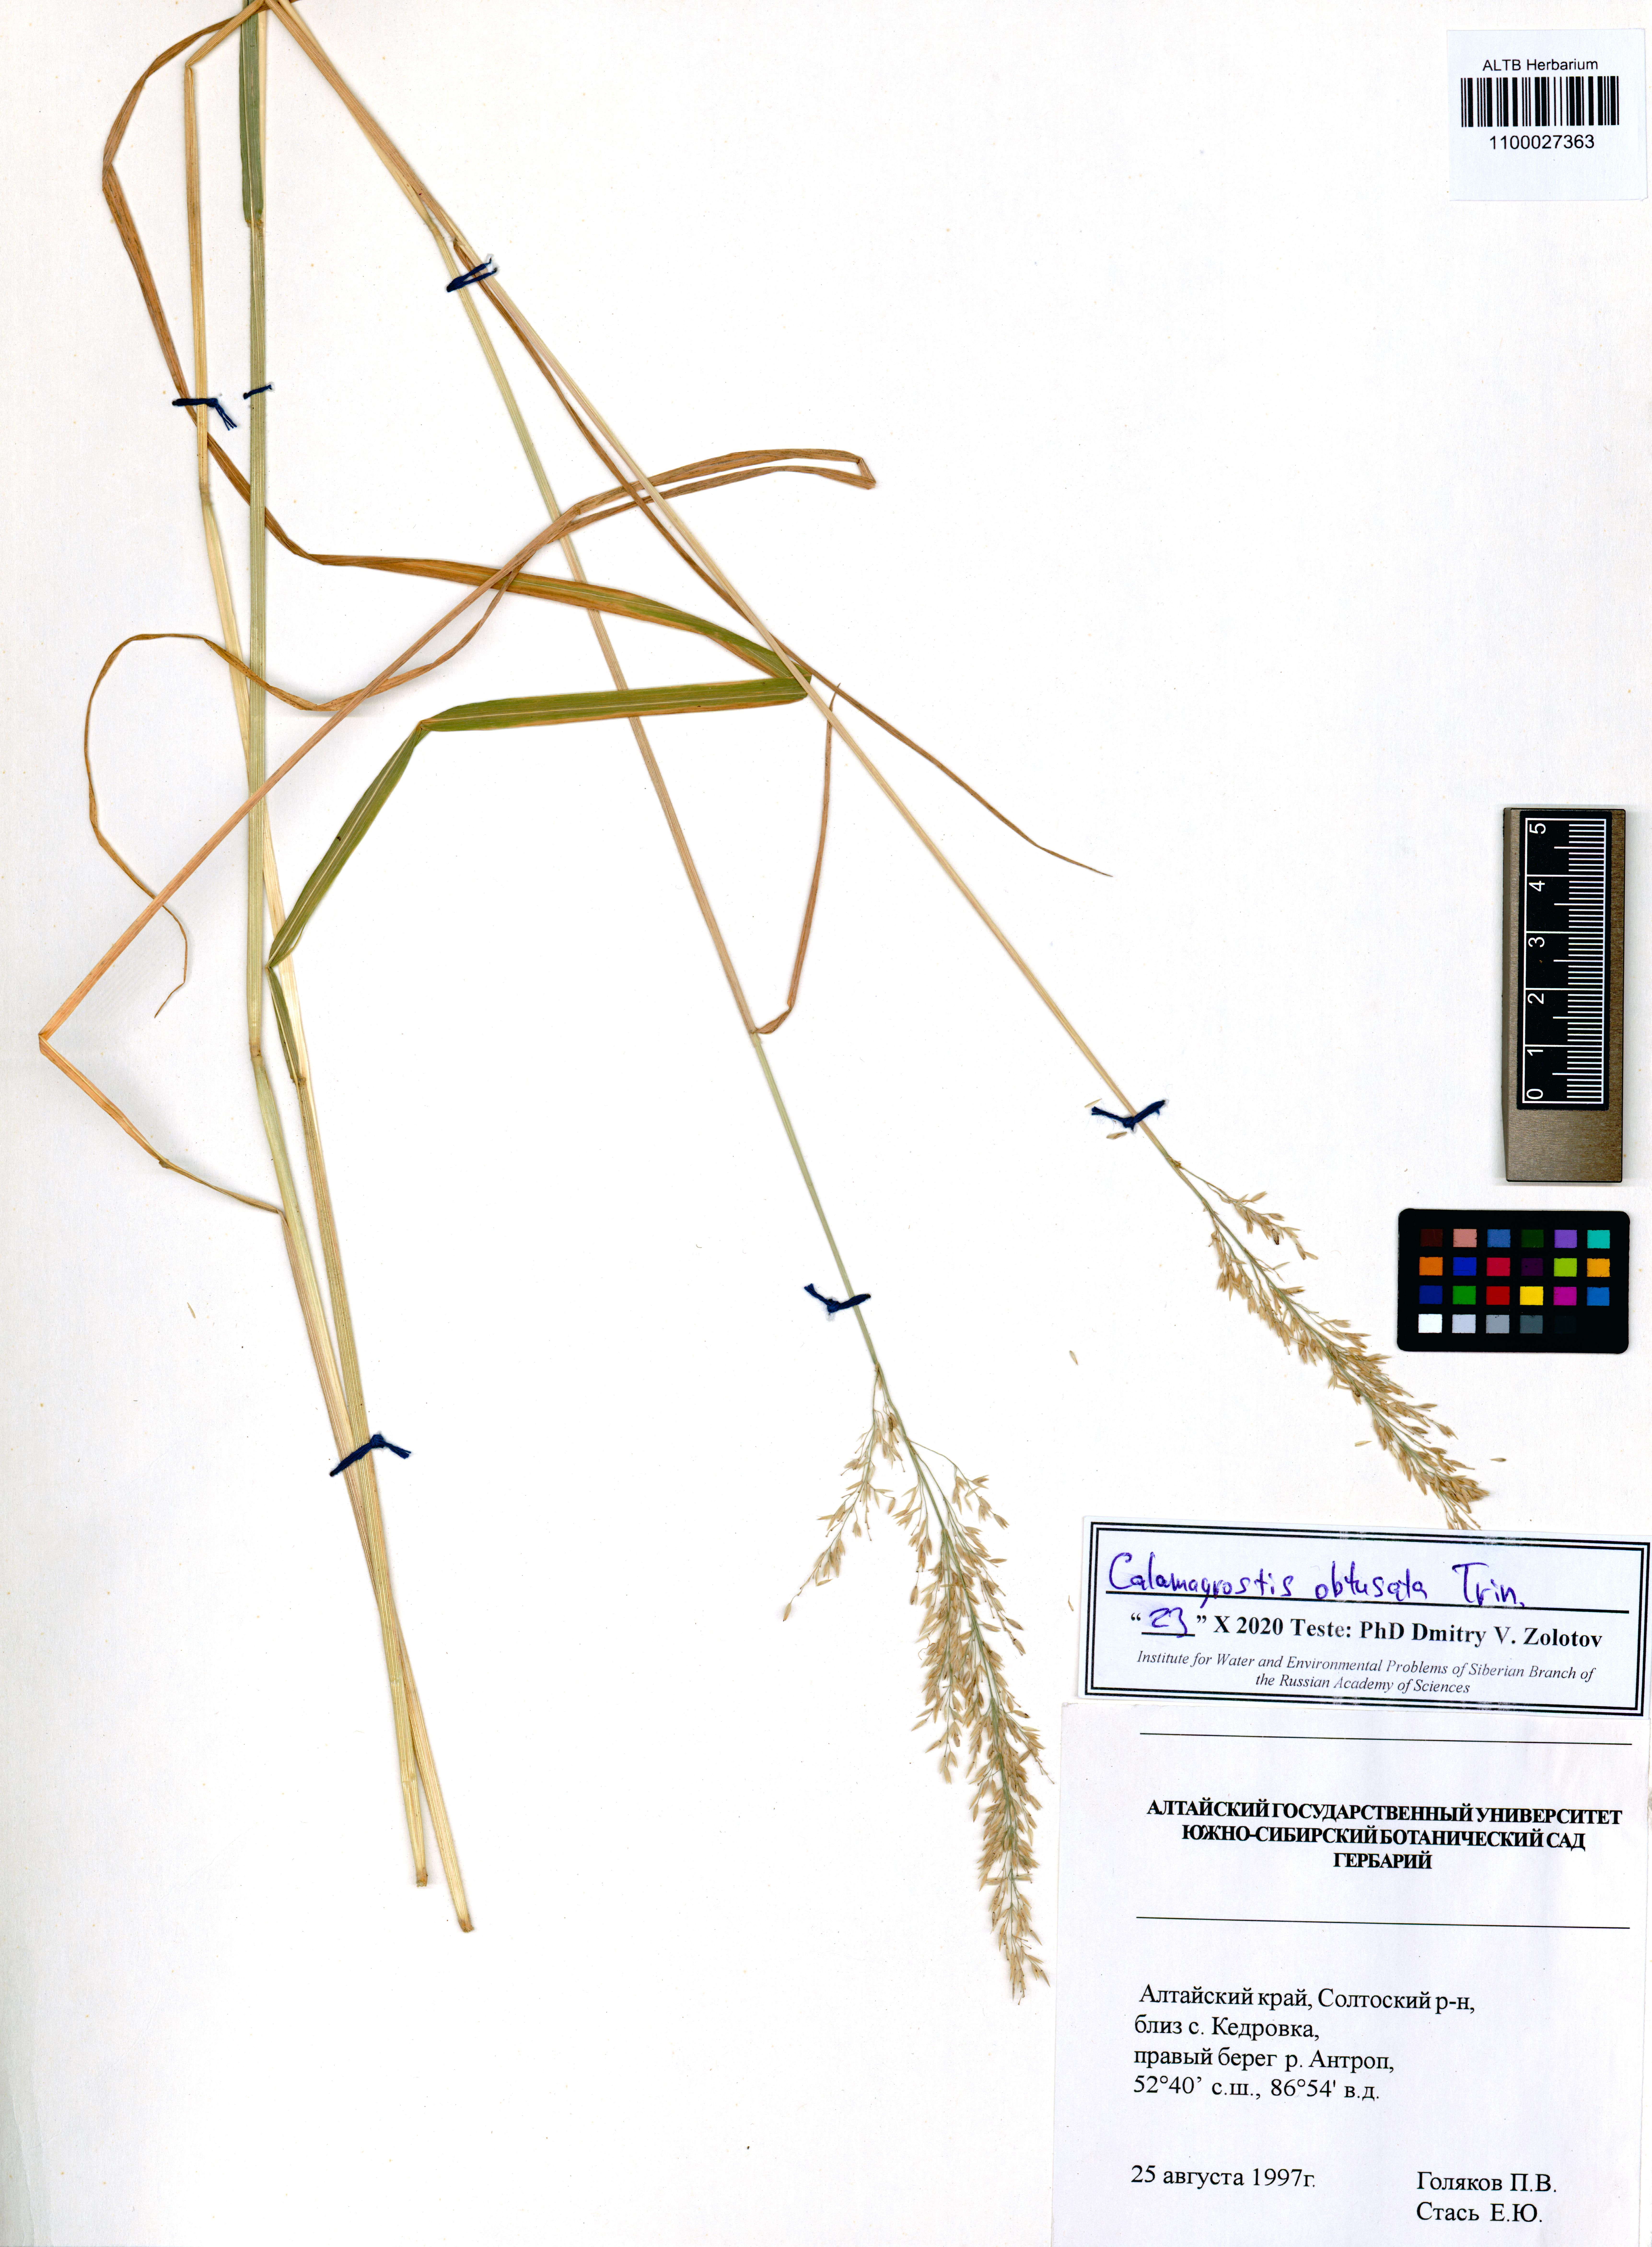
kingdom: Plantae
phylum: Tracheophyta
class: Liliopsida
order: Poales
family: Poaceae
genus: Calamagrostis
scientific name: Calamagrostis obtusata
